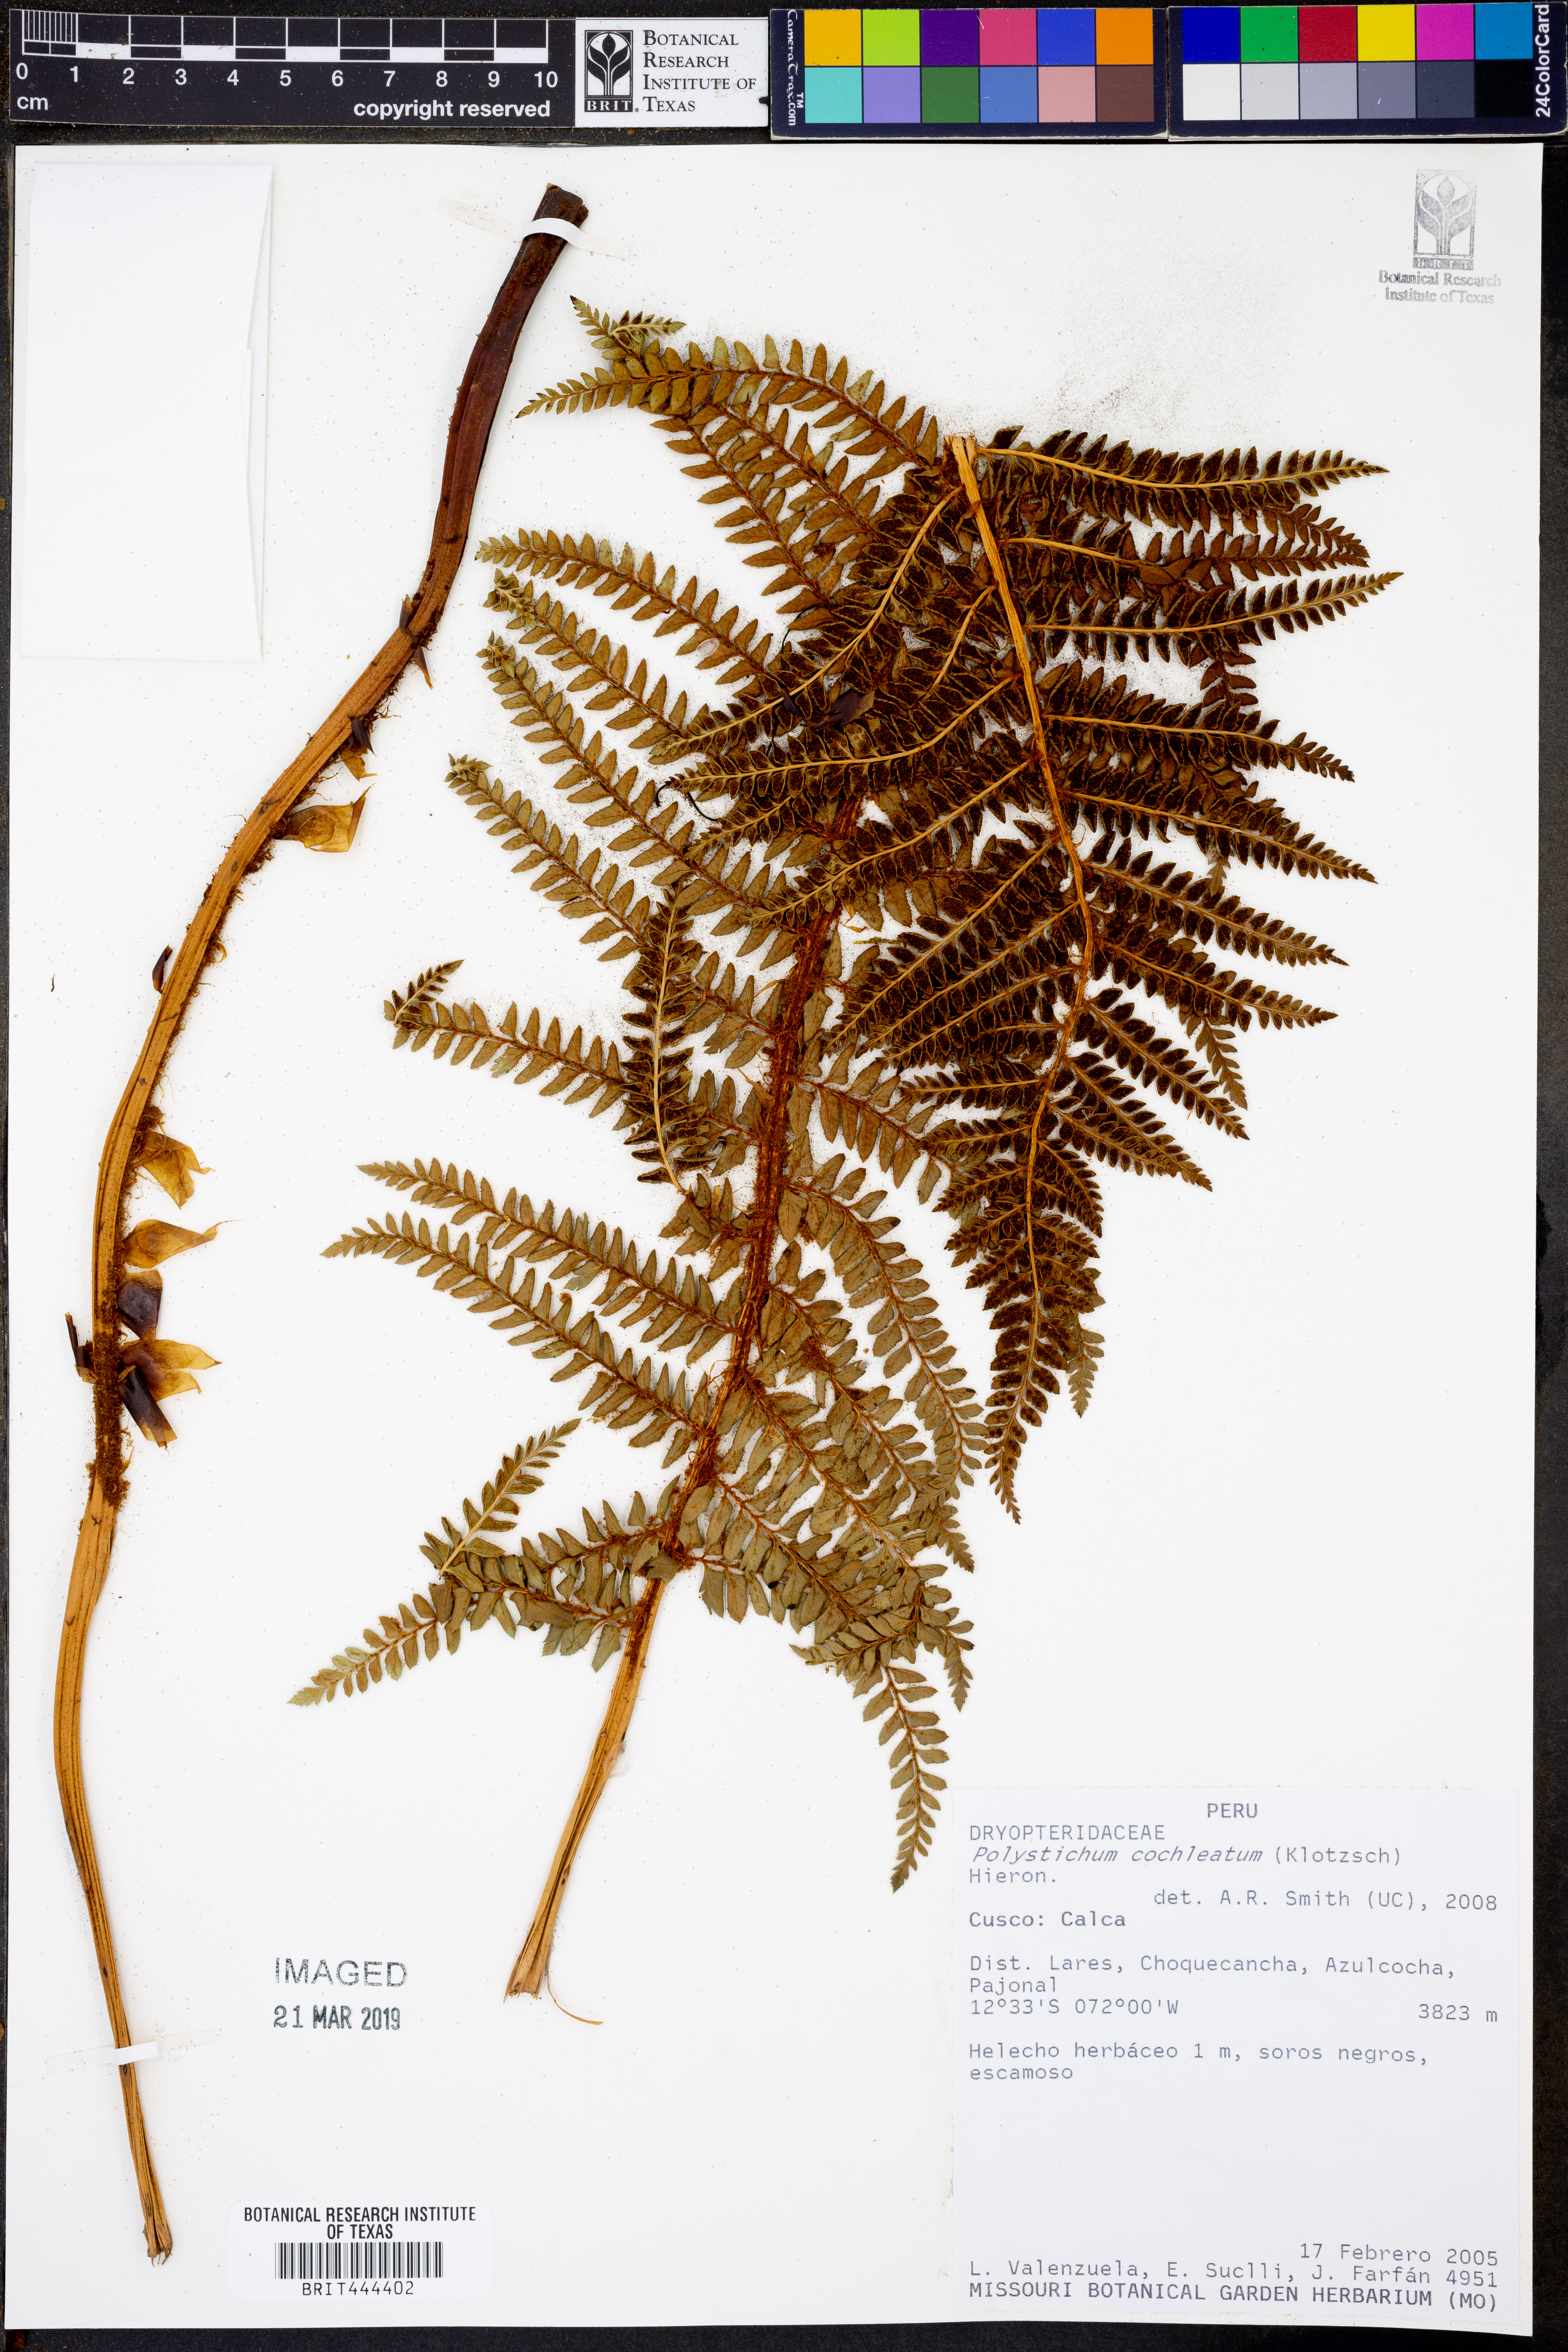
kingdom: Plantae
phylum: Tracheophyta
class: Polypodiopsida
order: Polypodiales
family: Dryopteridaceae
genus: Polystichum
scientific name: Polystichum cochleatum
